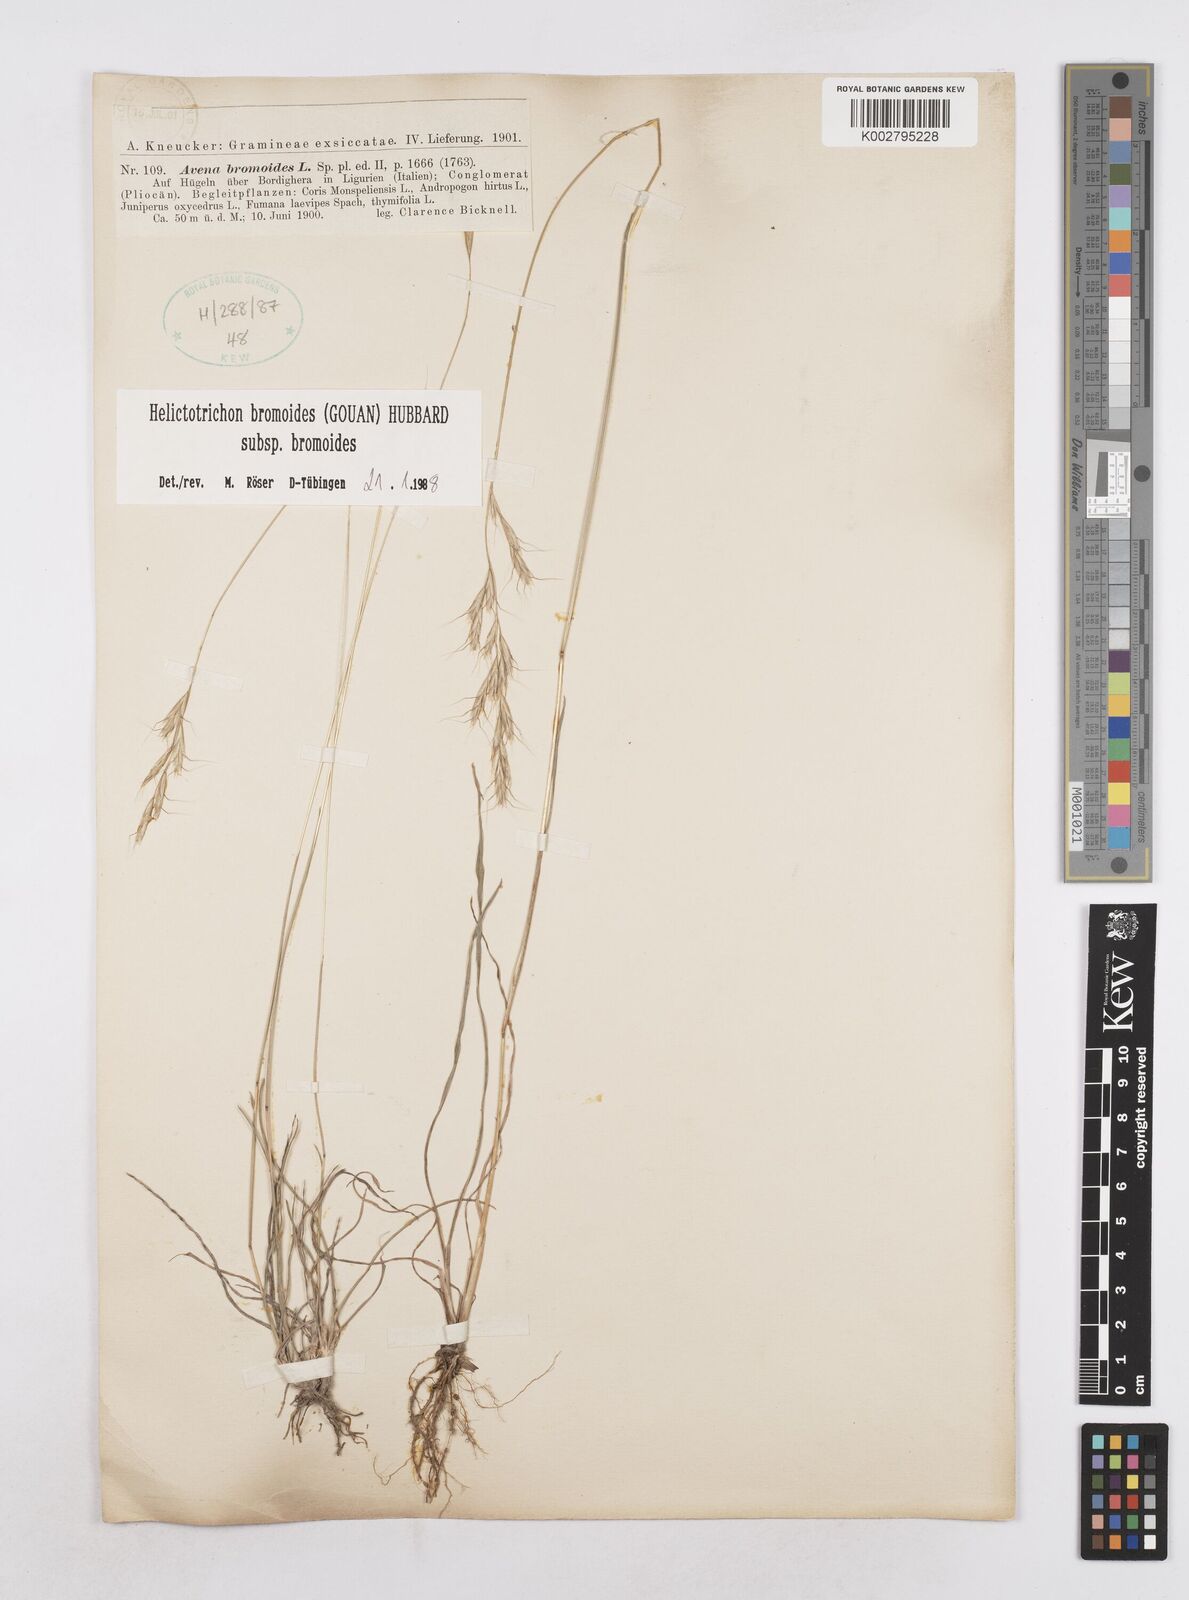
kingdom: Plantae
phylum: Tracheophyta
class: Liliopsida
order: Poales
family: Poaceae
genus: Helictochloa
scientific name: Helictochloa bromoides
